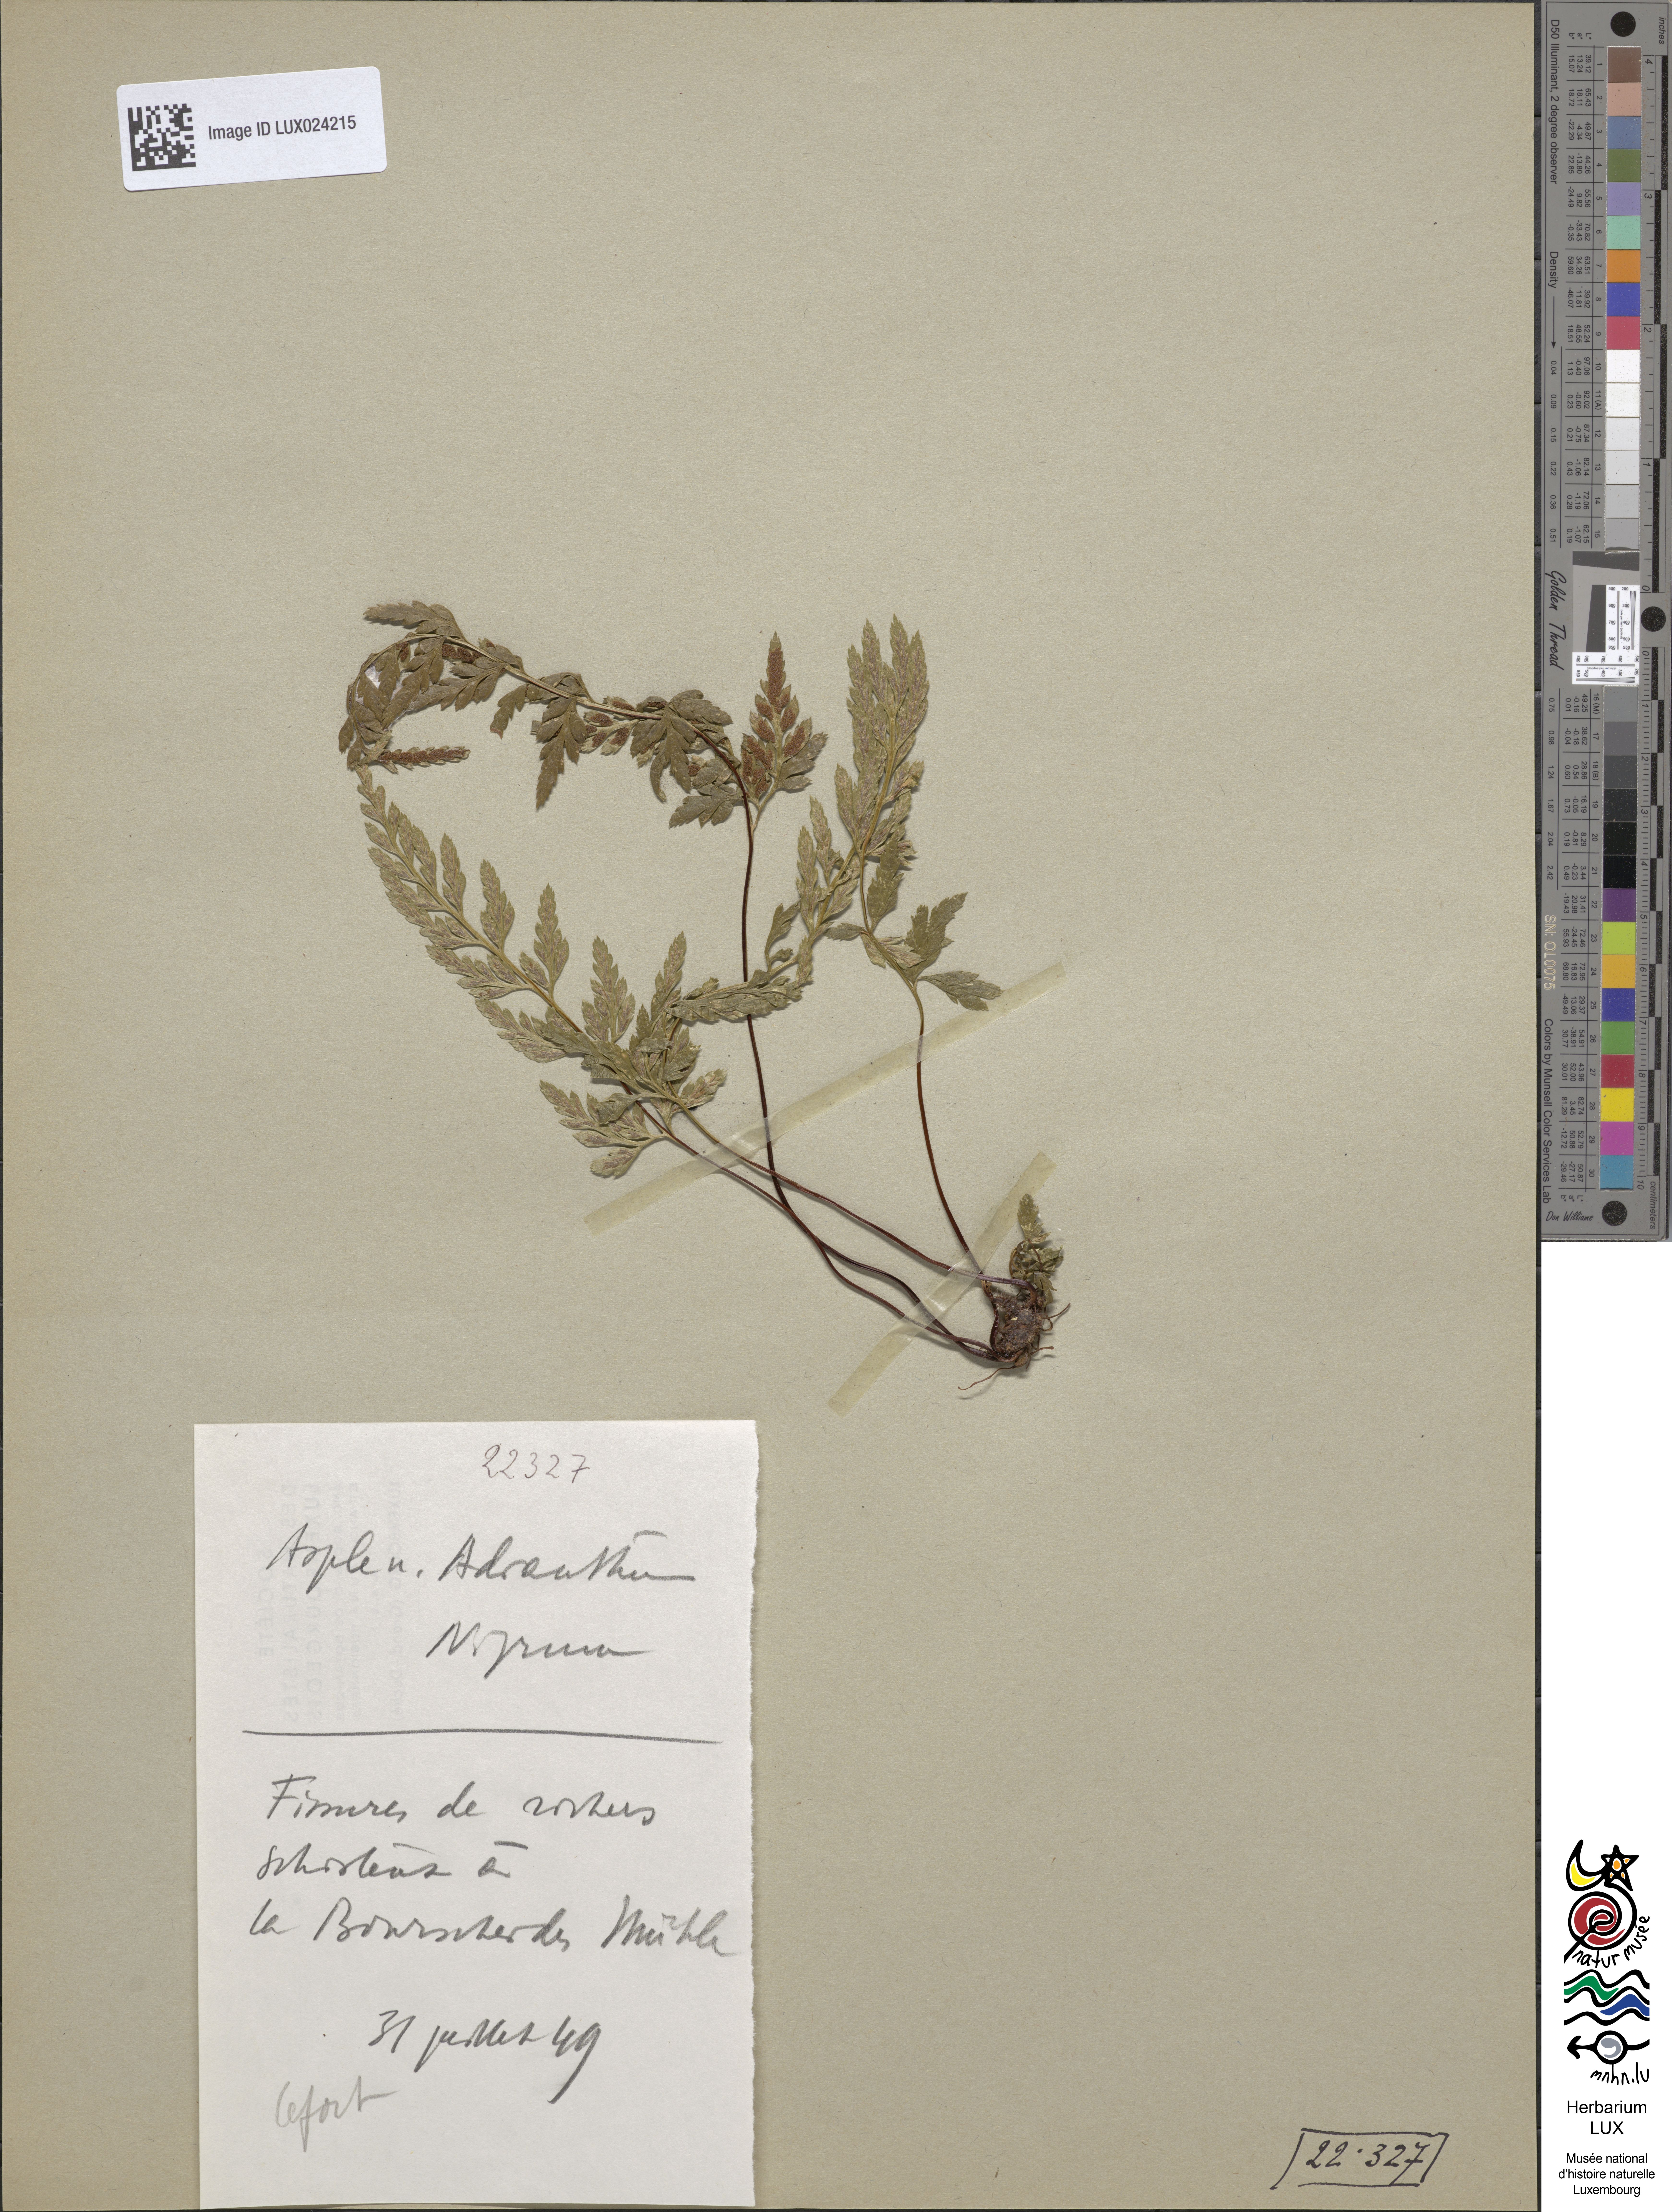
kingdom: Plantae
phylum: Tracheophyta
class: Polypodiopsida
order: Polypodiales
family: Aspleniaceae
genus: Asplenium
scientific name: Asplenium adiantum-nigrum
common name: Black spleenwort
